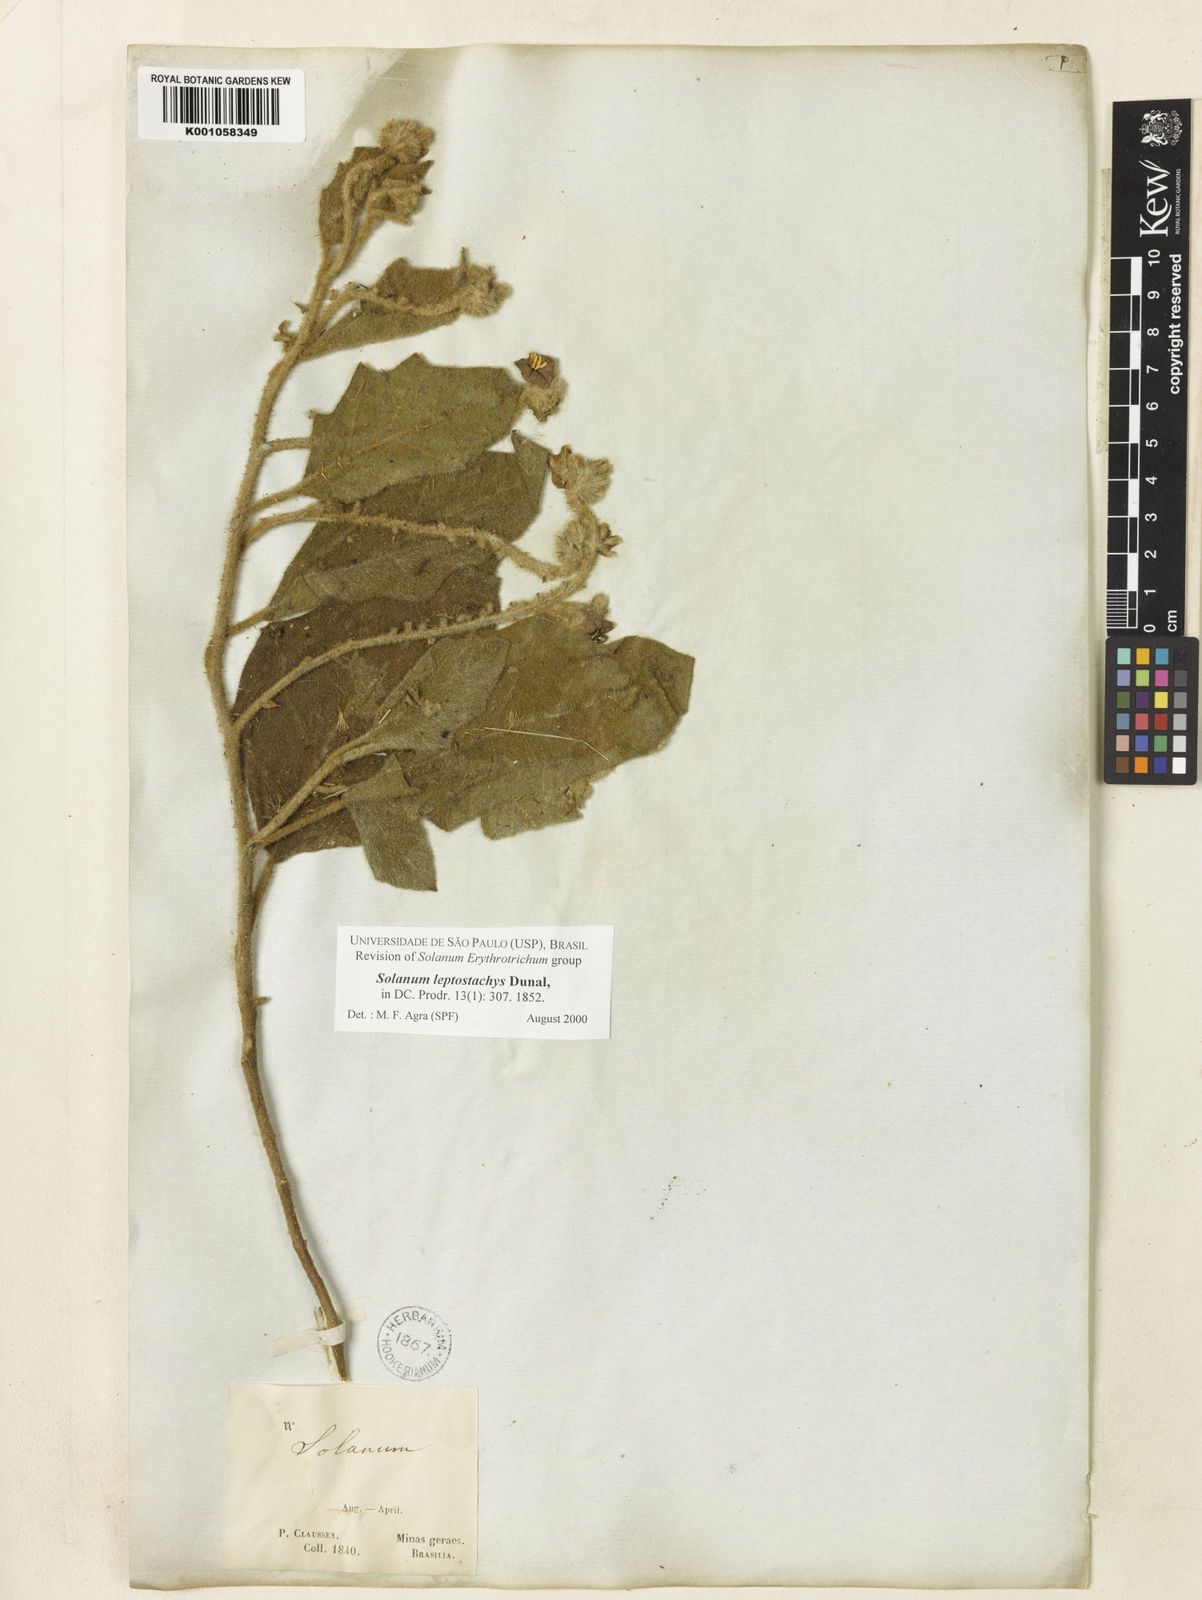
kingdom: Plantae
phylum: Tracheophyta
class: Magnoliopsida
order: Solanales
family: Solanaceae
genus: Solanum
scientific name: Solanum leptostachys
